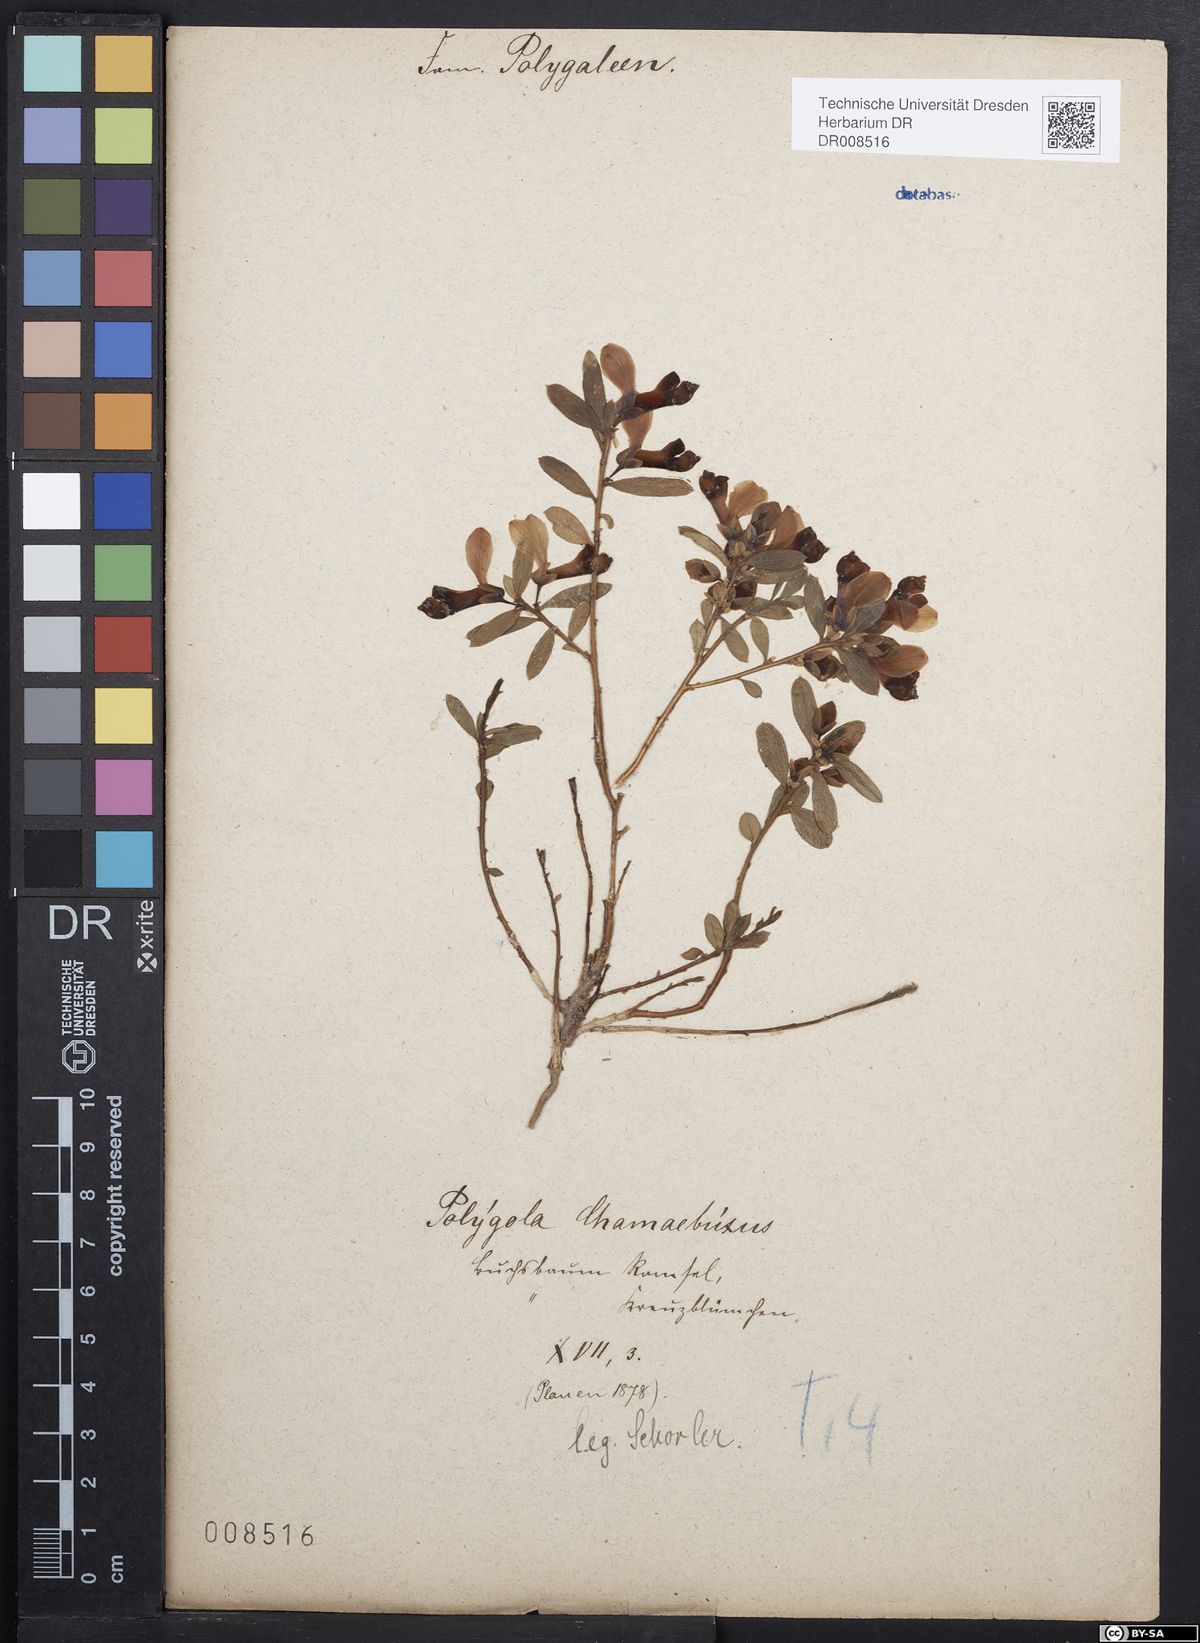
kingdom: Plantae
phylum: Tracheophyta
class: Magnoliopsida
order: Fabales
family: Polygalaceae
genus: Polygaloides
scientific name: Polygaloides chamaebuxus
